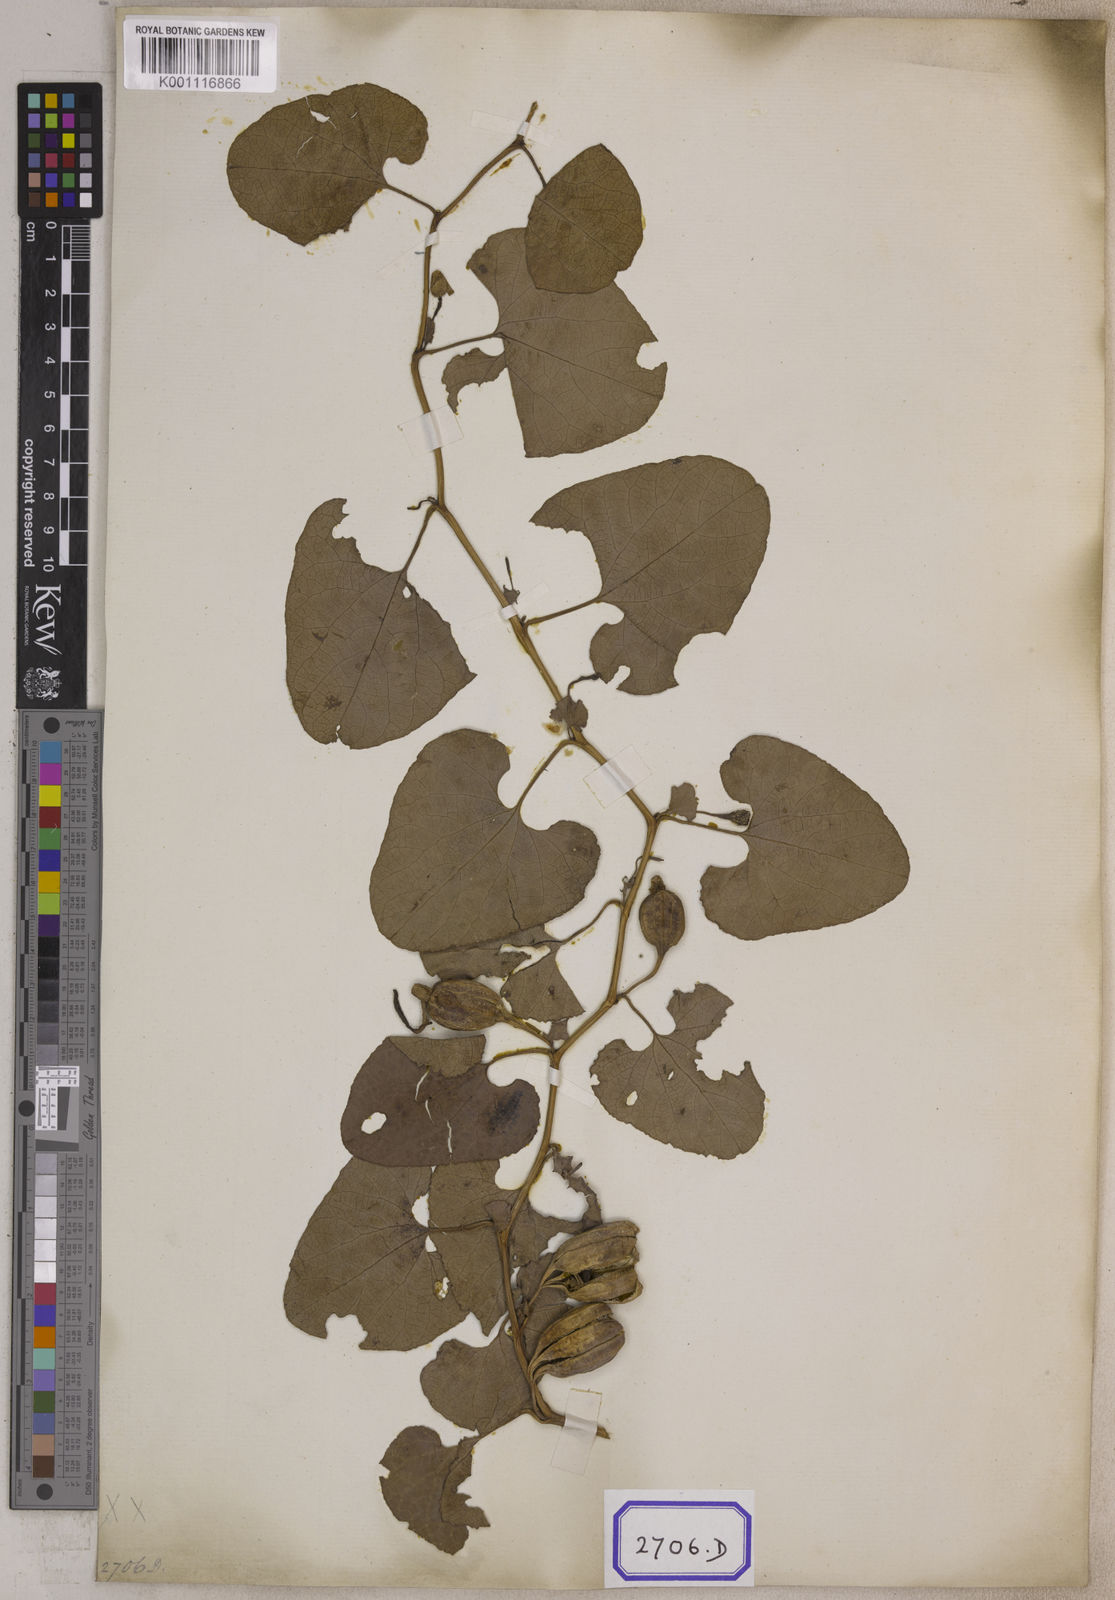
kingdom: Plantae
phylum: Tracheophyta
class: Magnoliopsida
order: Piperales
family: Aristolochiaceae
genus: Aristolochia
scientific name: Aristolochia bracteolata
